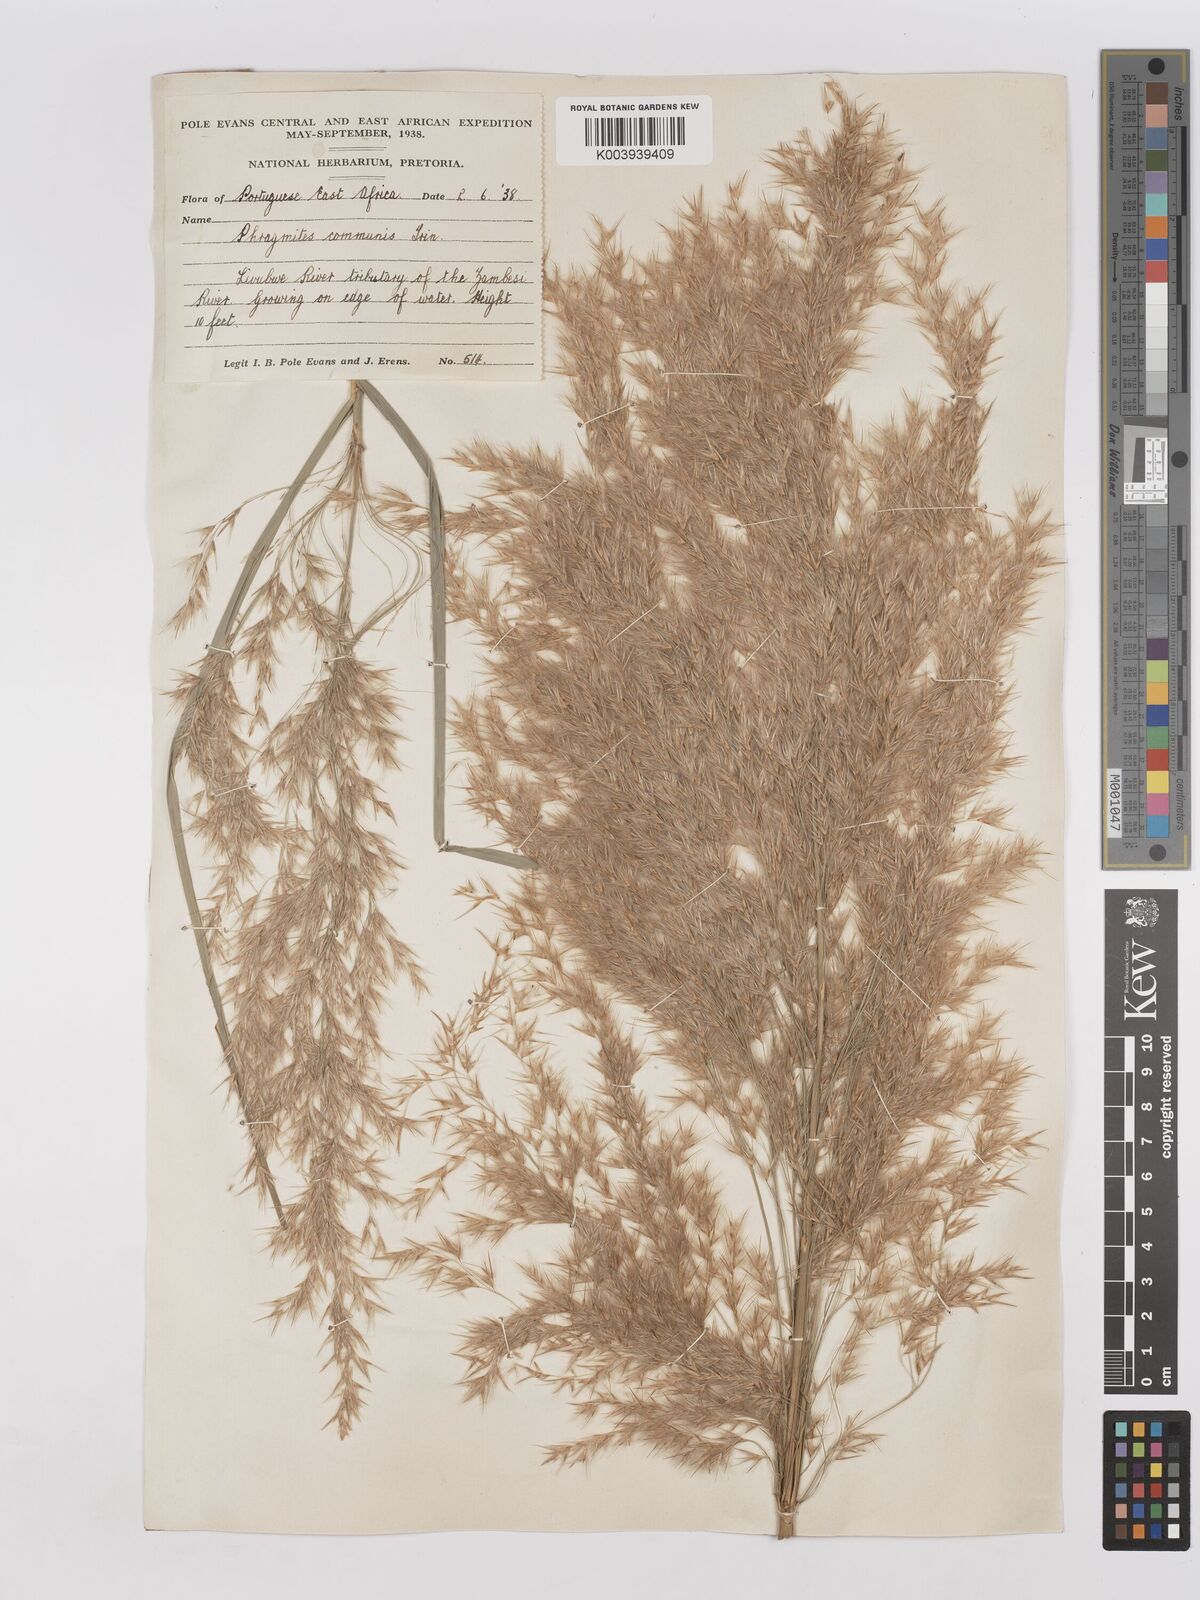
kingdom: Plantae
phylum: Tracheophyta
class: Liliopsida
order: Poales
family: Poaceae
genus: Phragmites
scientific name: Phragmites mauritianus
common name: Reed grass
